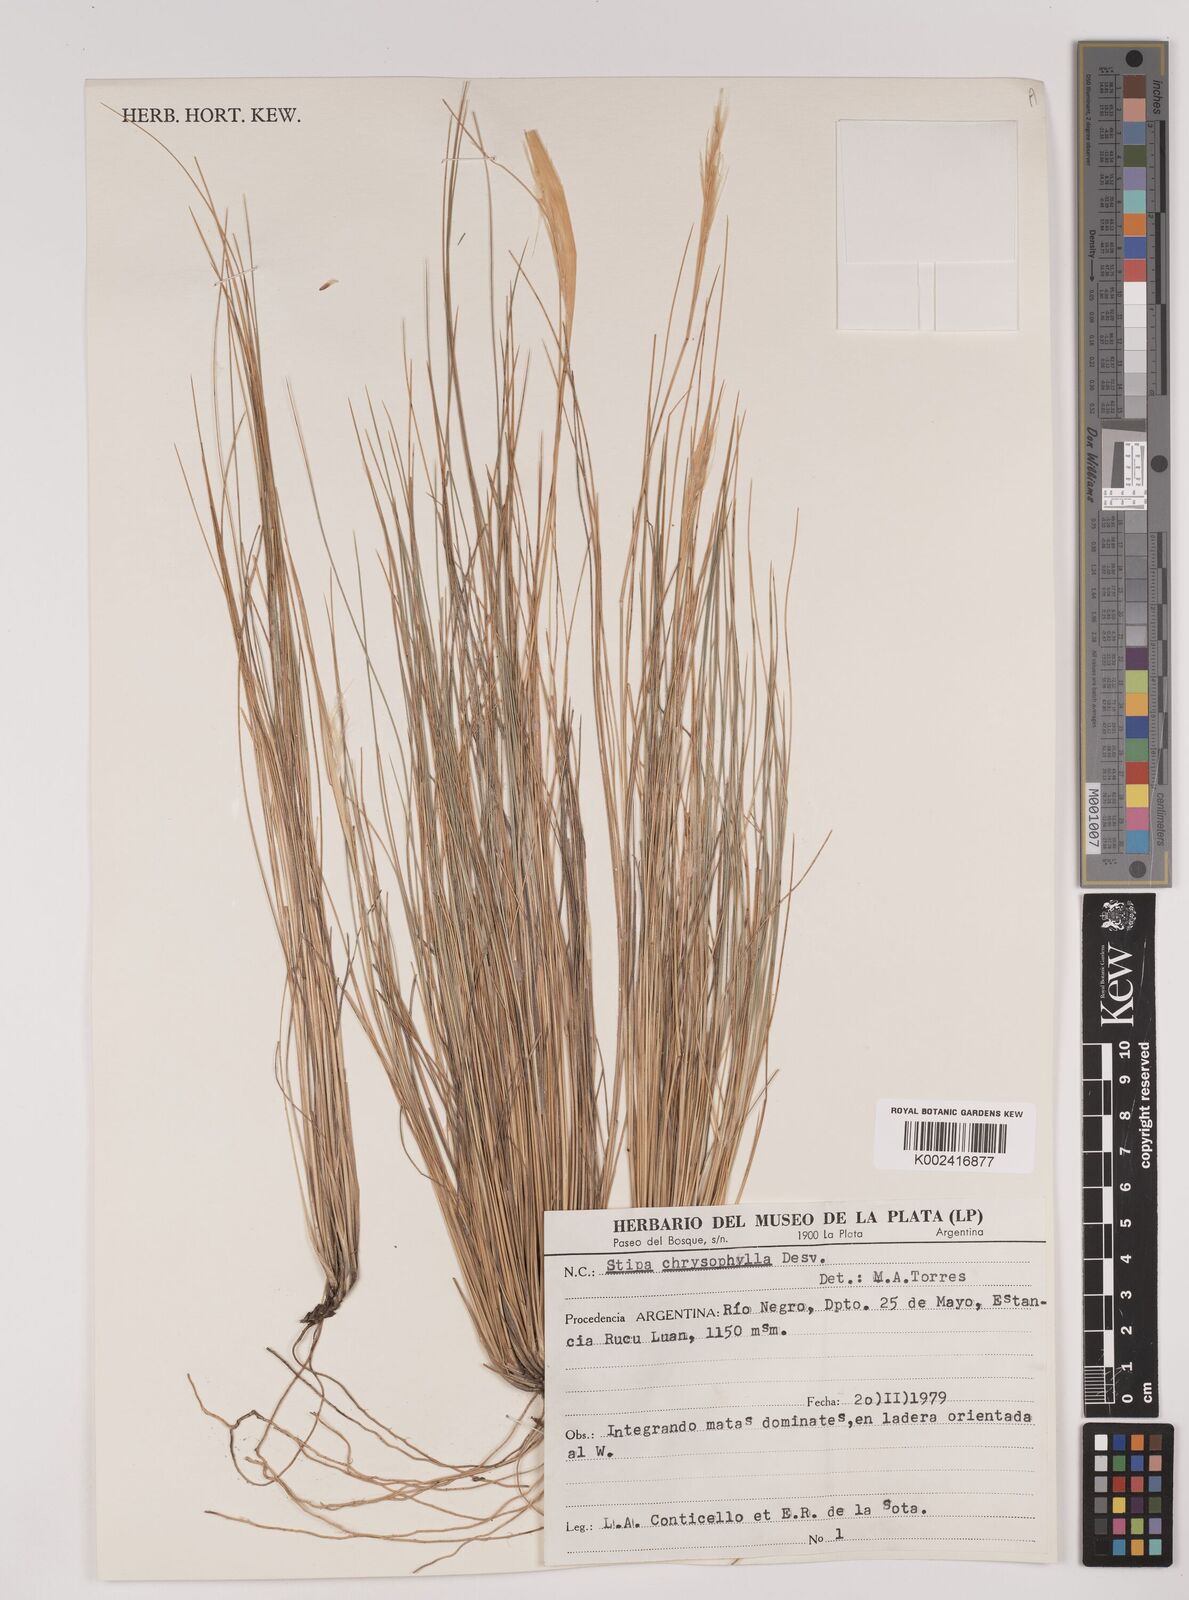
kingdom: Plantae
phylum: Tracheophyta
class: Liliopsida
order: Poales
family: Poaceae
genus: Pappostipa
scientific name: Pappostipa humilis
